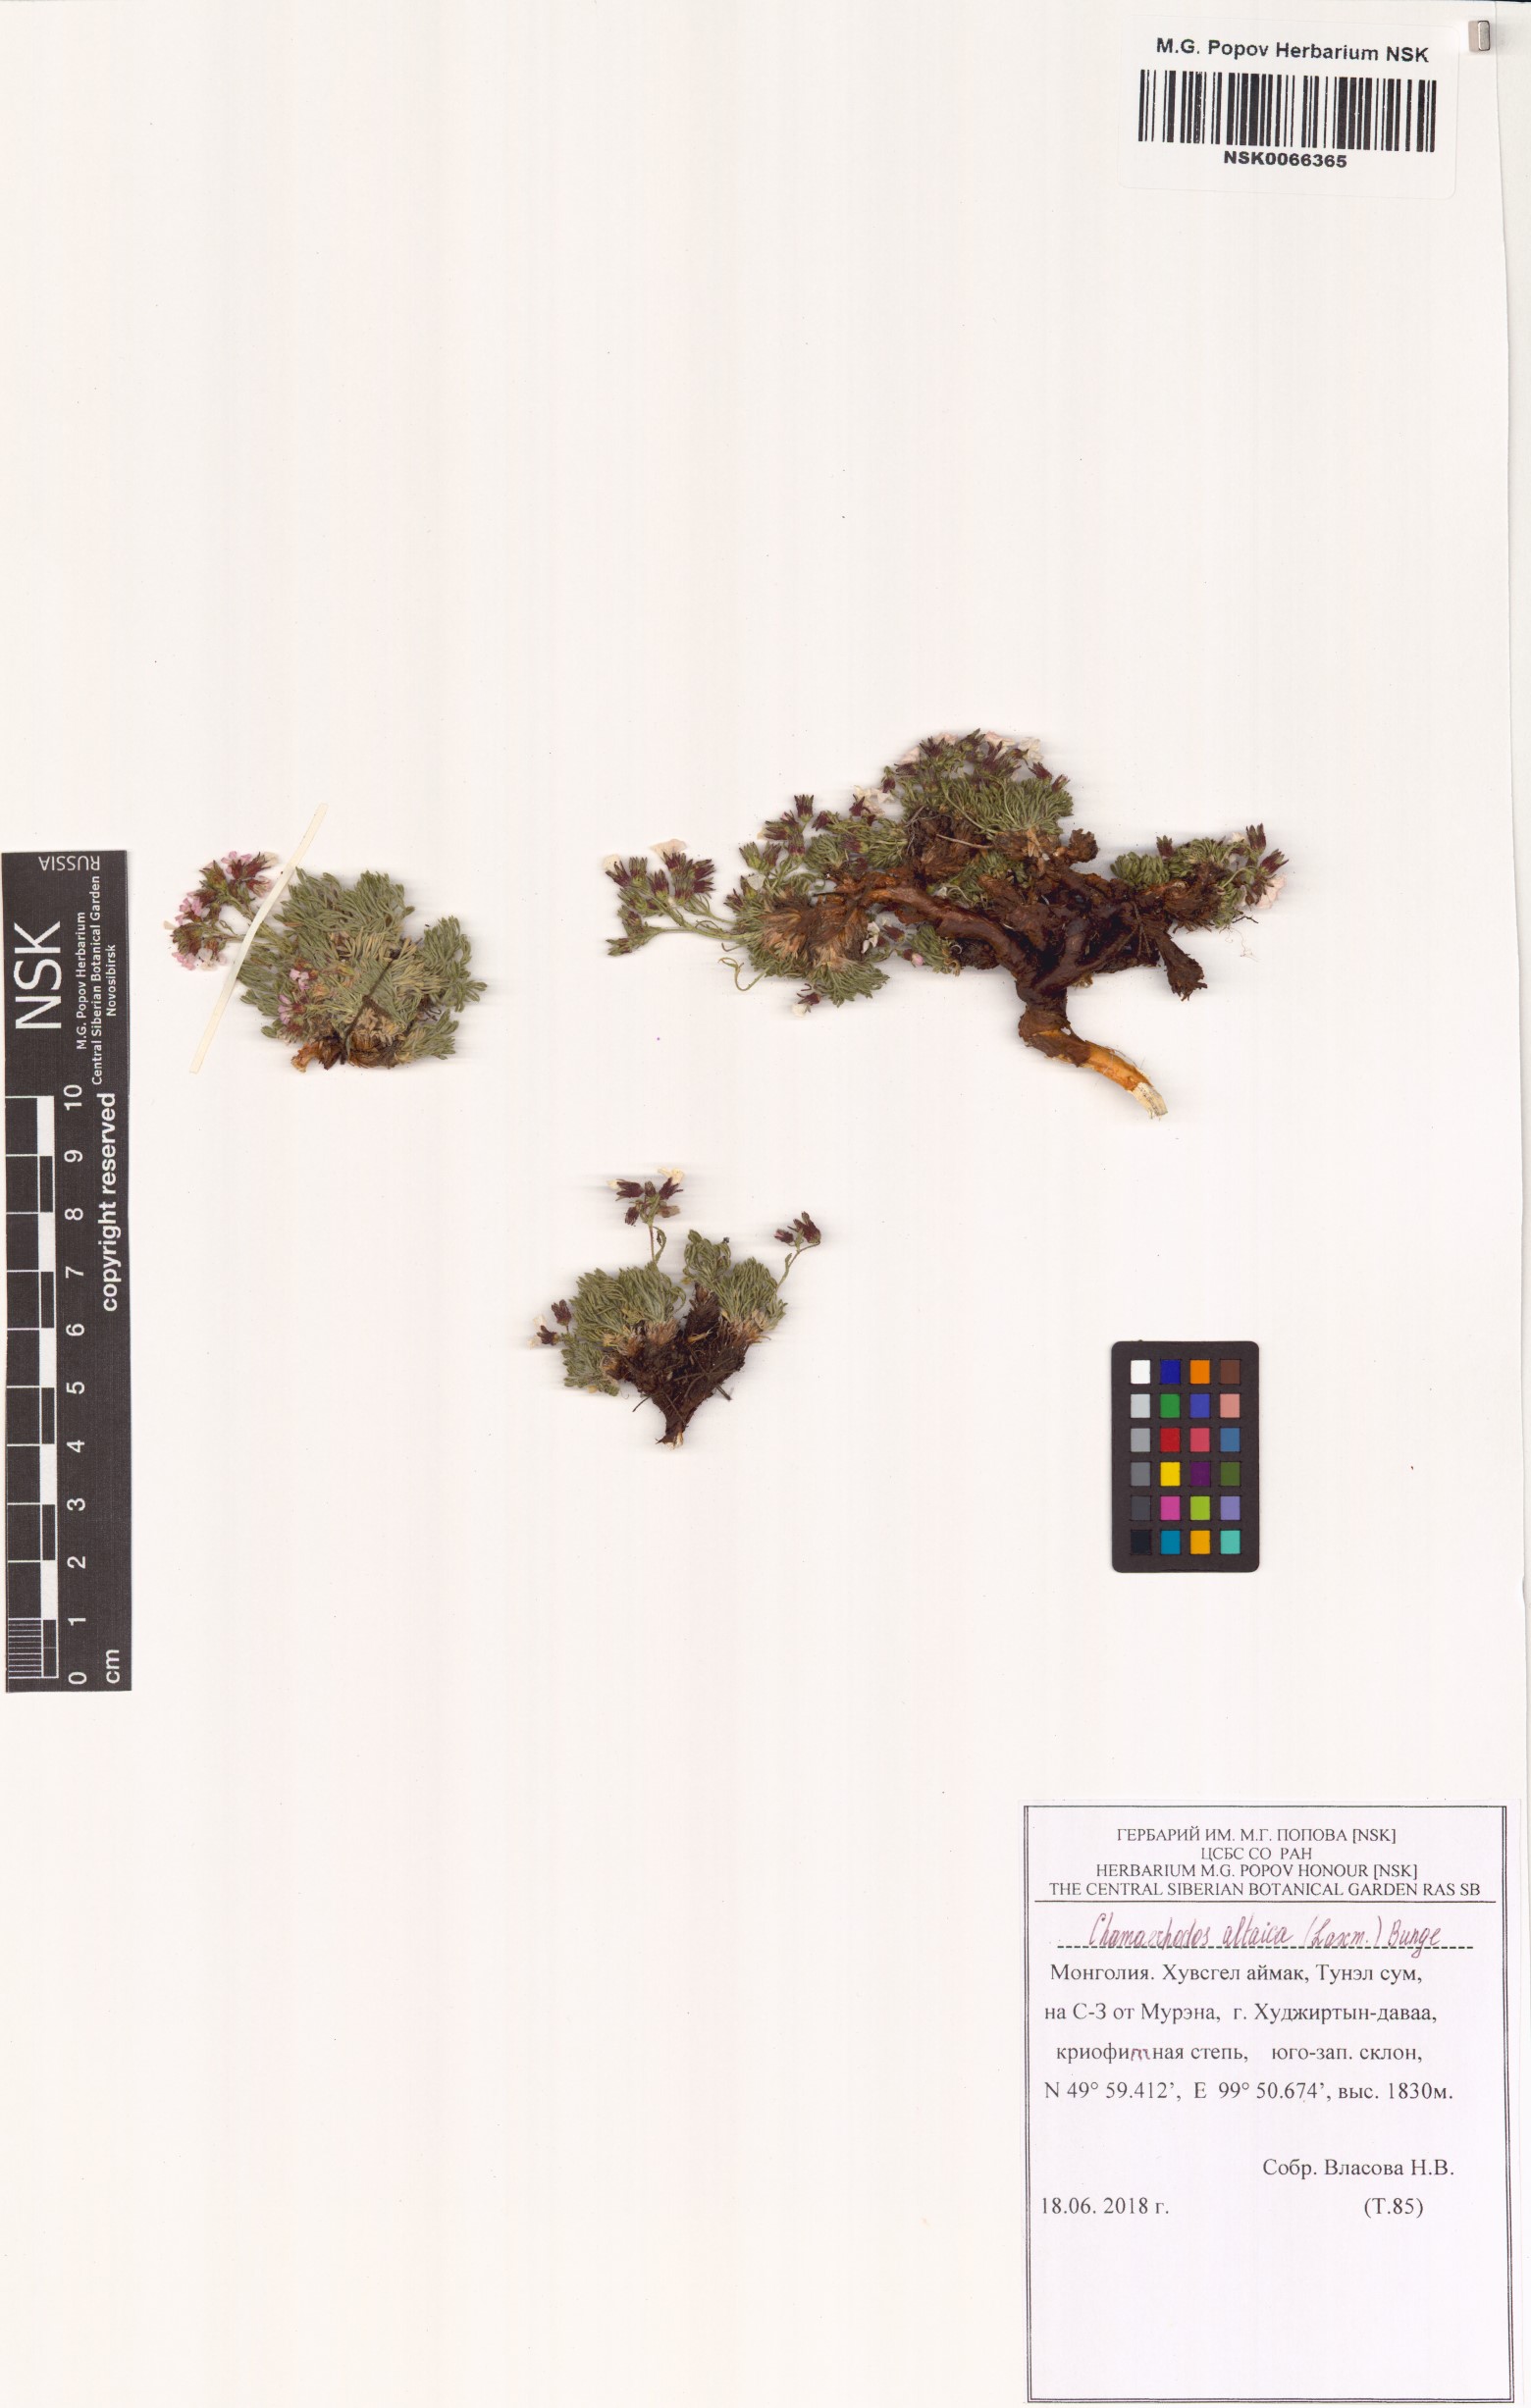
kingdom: Plantae
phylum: Tracheophyta
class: Magnoliopsida
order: Rosales
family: Rosaceae
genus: Chamaerhodos
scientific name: Chamaerhodos altaica
